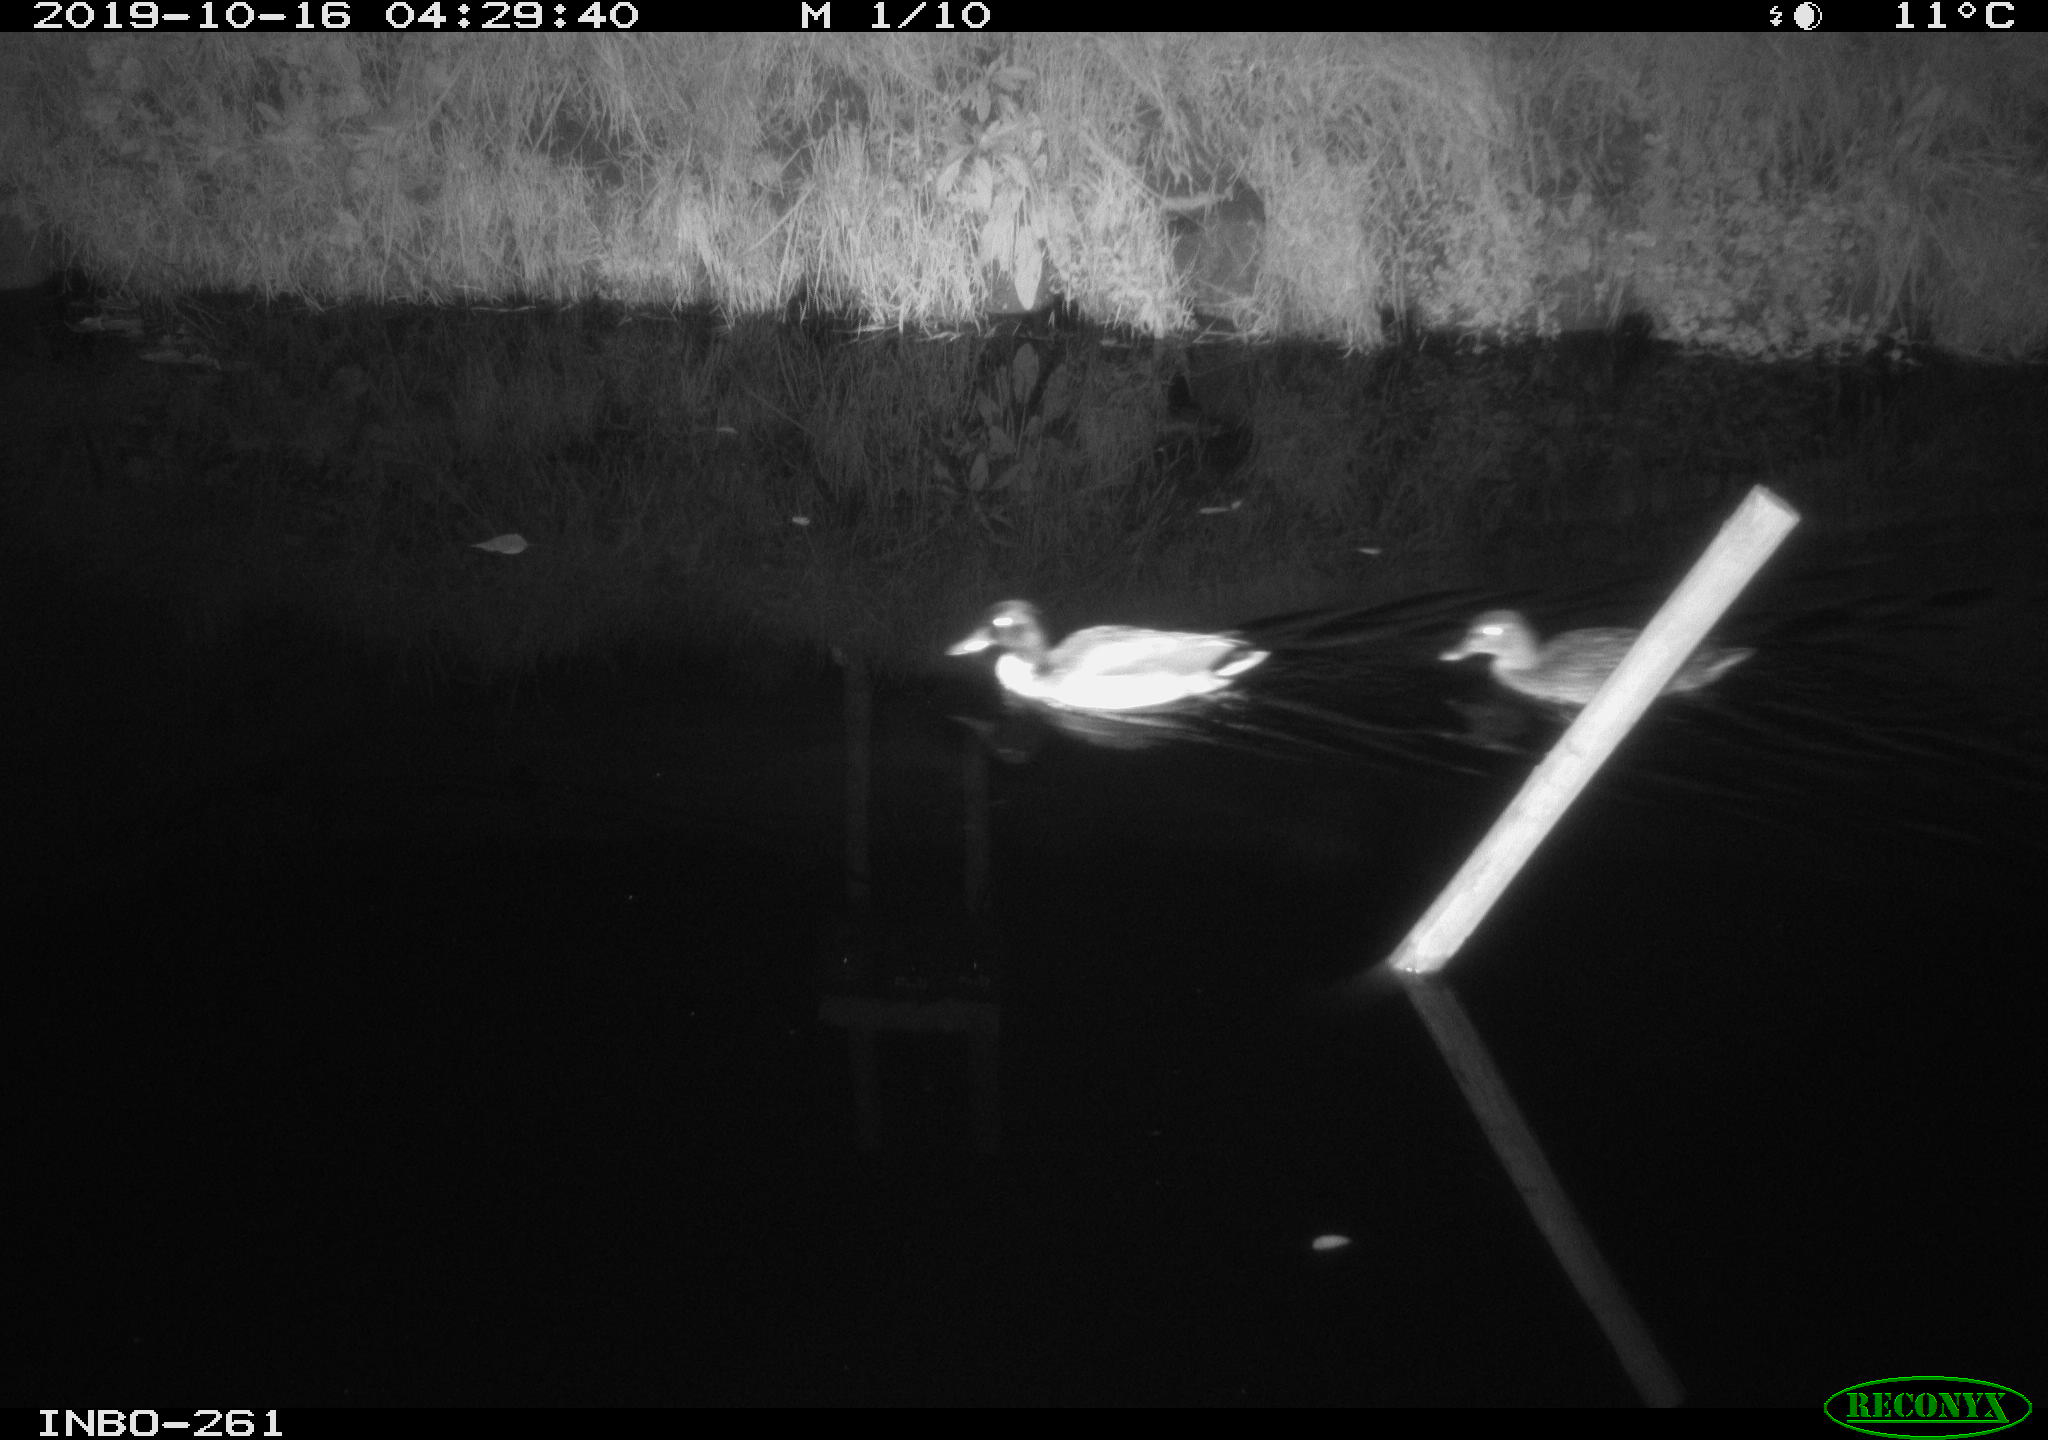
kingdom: Animalia
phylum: Chordata
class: Aves
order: Anseriformes
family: Anatidae
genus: Anas
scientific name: Anas platyrhynchos
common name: Mallard
